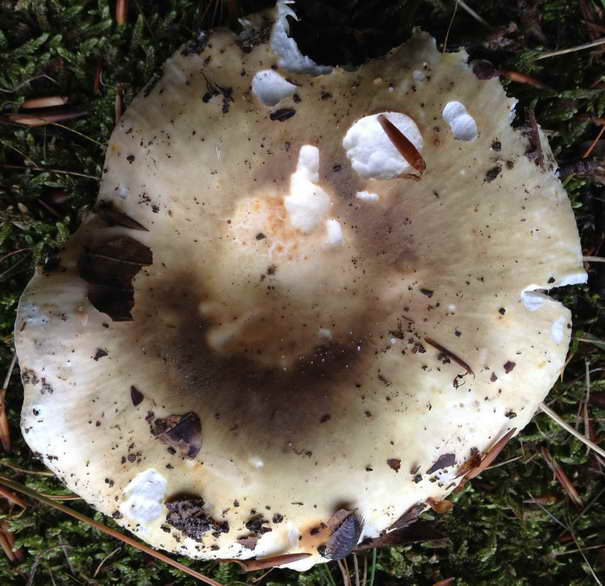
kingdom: Fungi
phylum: Basidiomycota
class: Agaricomycetes
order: Russulales
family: Russulaceae
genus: Russula
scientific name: Russula heterophylla
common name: gaffelbladet skørhat
